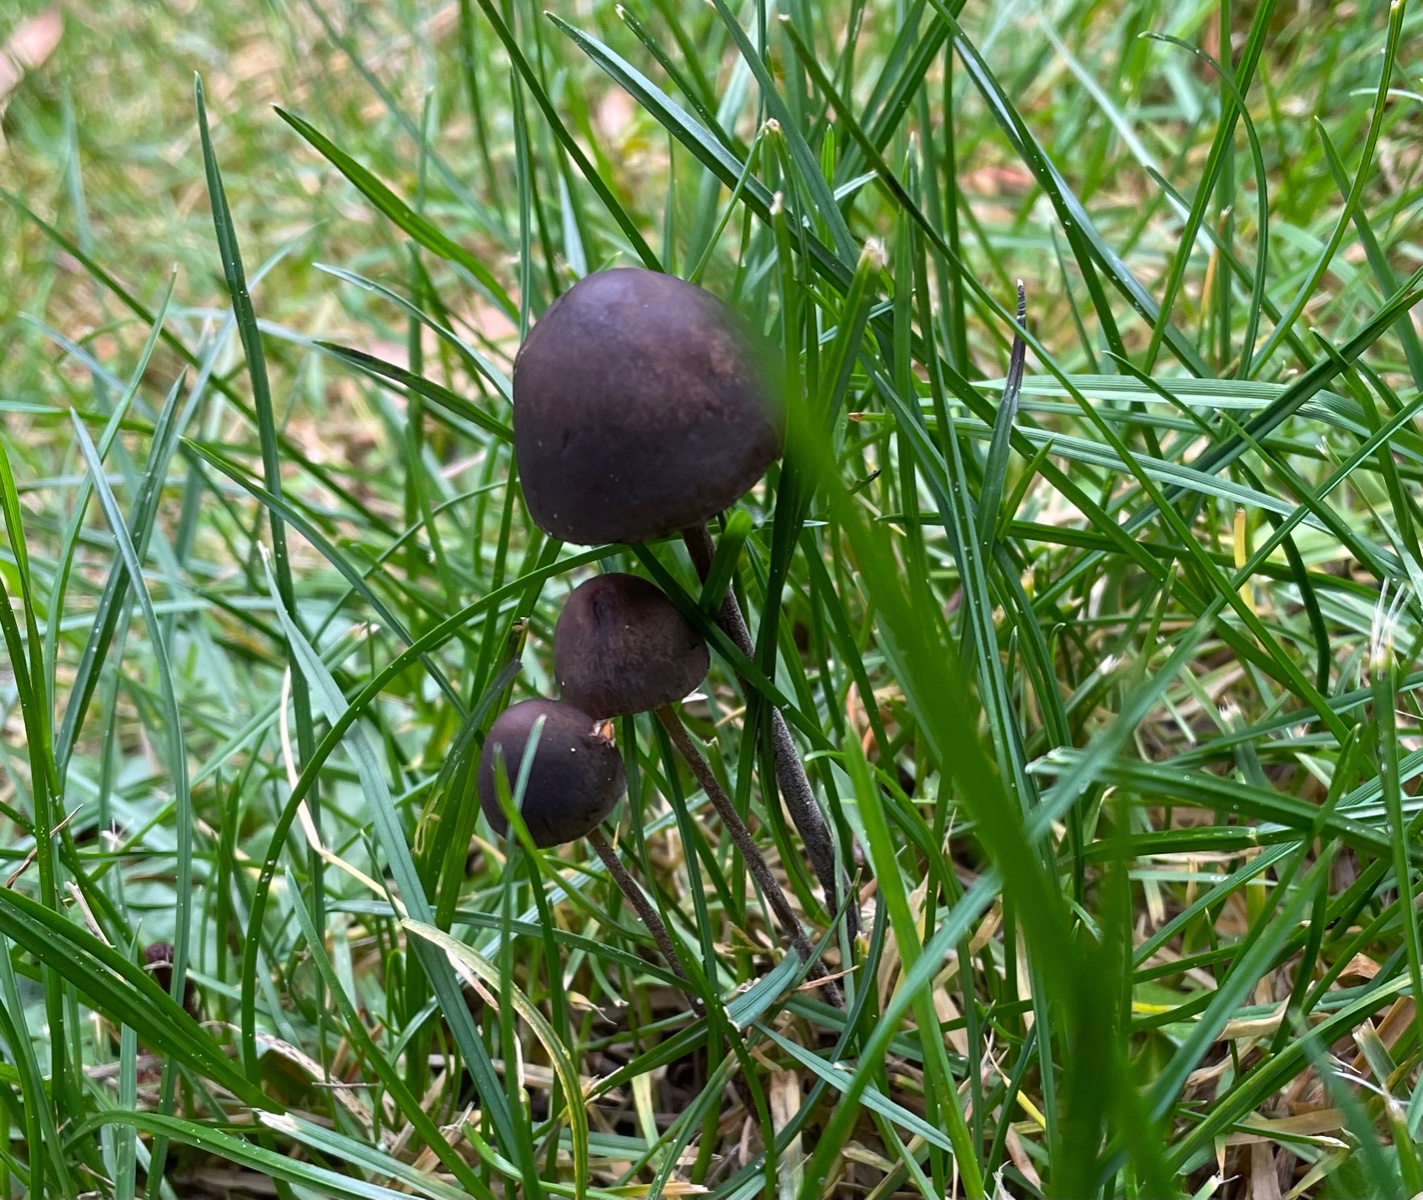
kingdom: Fungi
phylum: Basidiomycota
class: Agaricomycetes
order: Agaricales
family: Bolbitiaceae
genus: Panaeolus
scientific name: Panaeolus acuminatus
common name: høj glanshat
